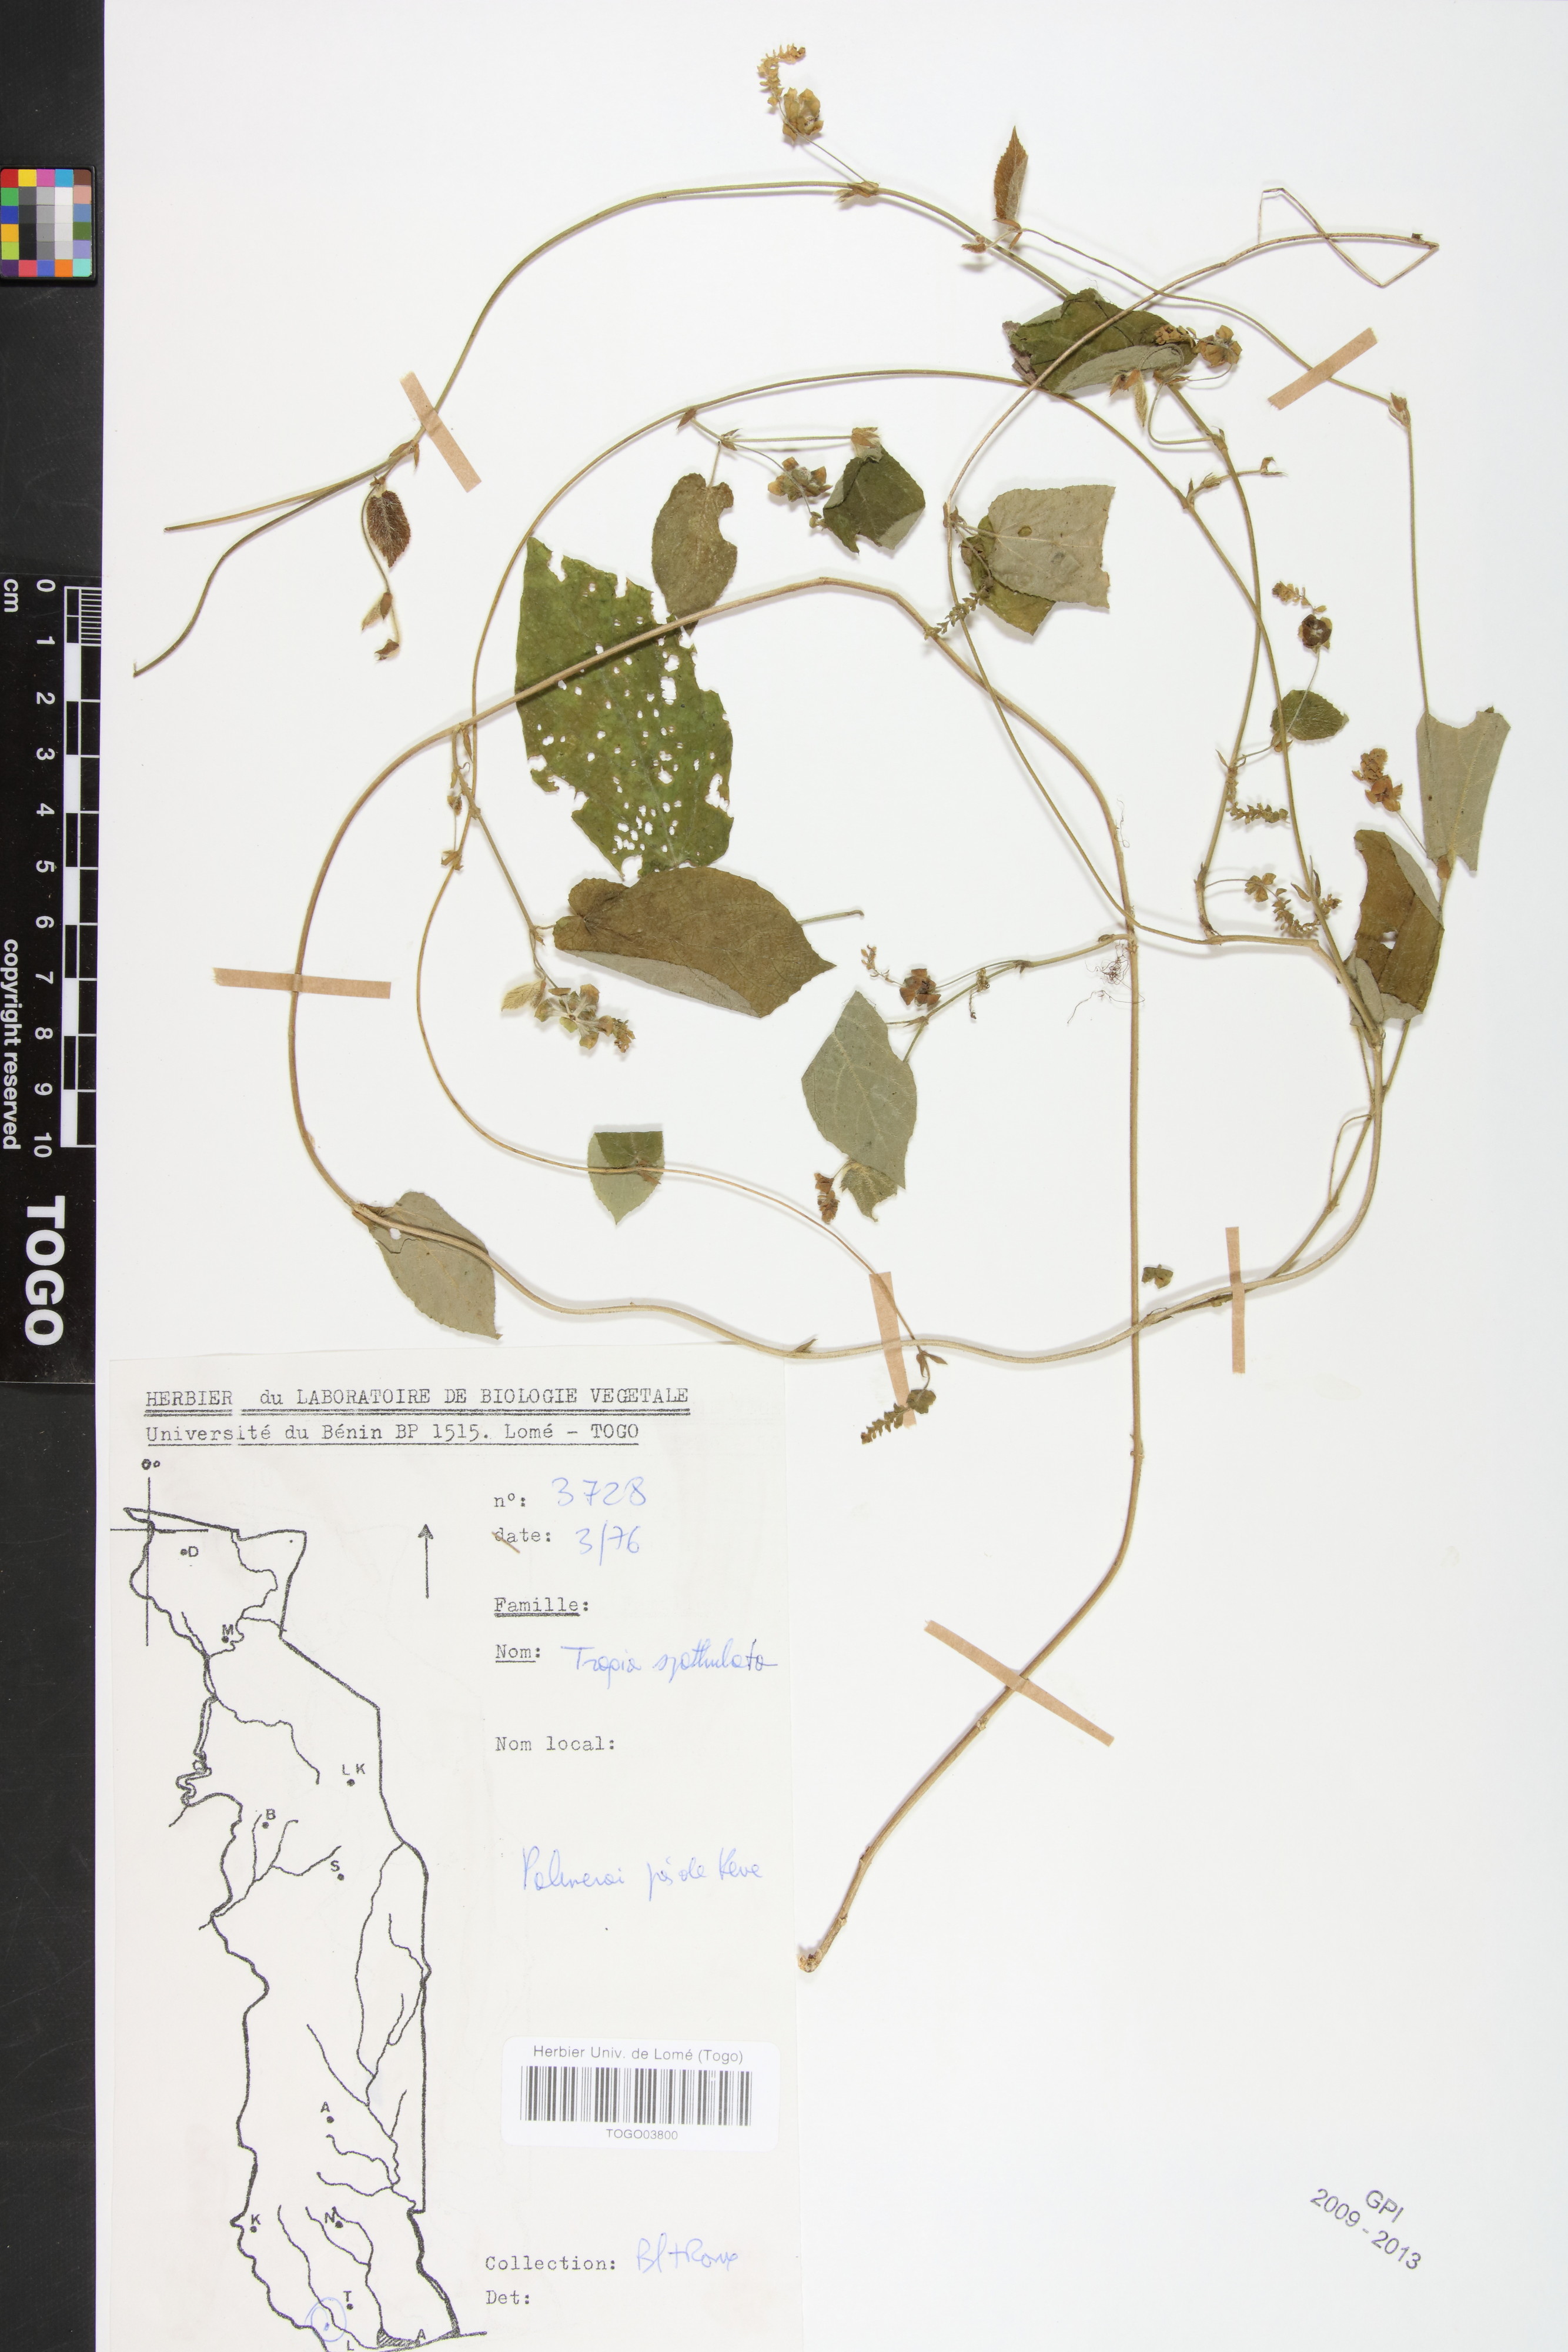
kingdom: Plantae
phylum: Tracheophyta
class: Magnoliopsida
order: Malpighiales
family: Euphorbiaceae
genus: Tragia
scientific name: Tragia spathulata
